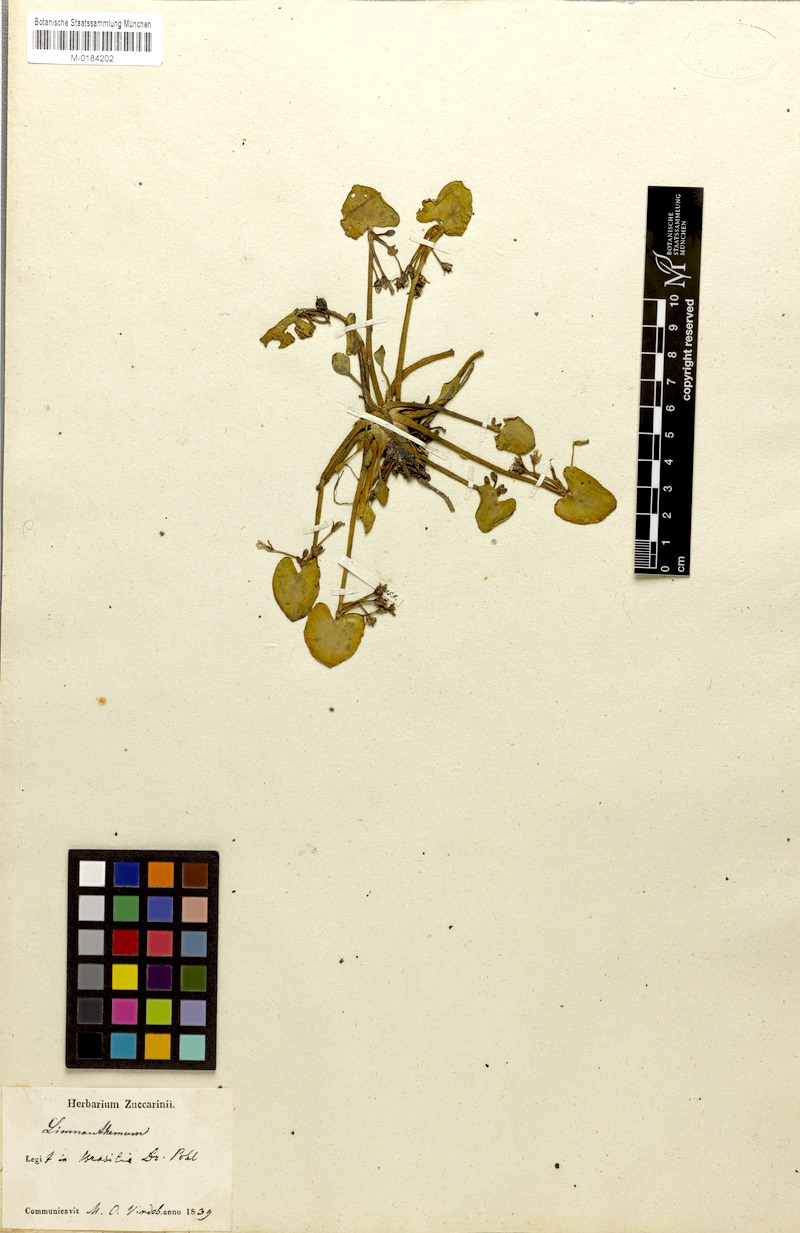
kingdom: Plantae
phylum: Tracheophyta
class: Magnoliopsida
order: Asterales
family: Menyanthaceae
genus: Nymphoides
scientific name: Nymphoides humboldtiana
